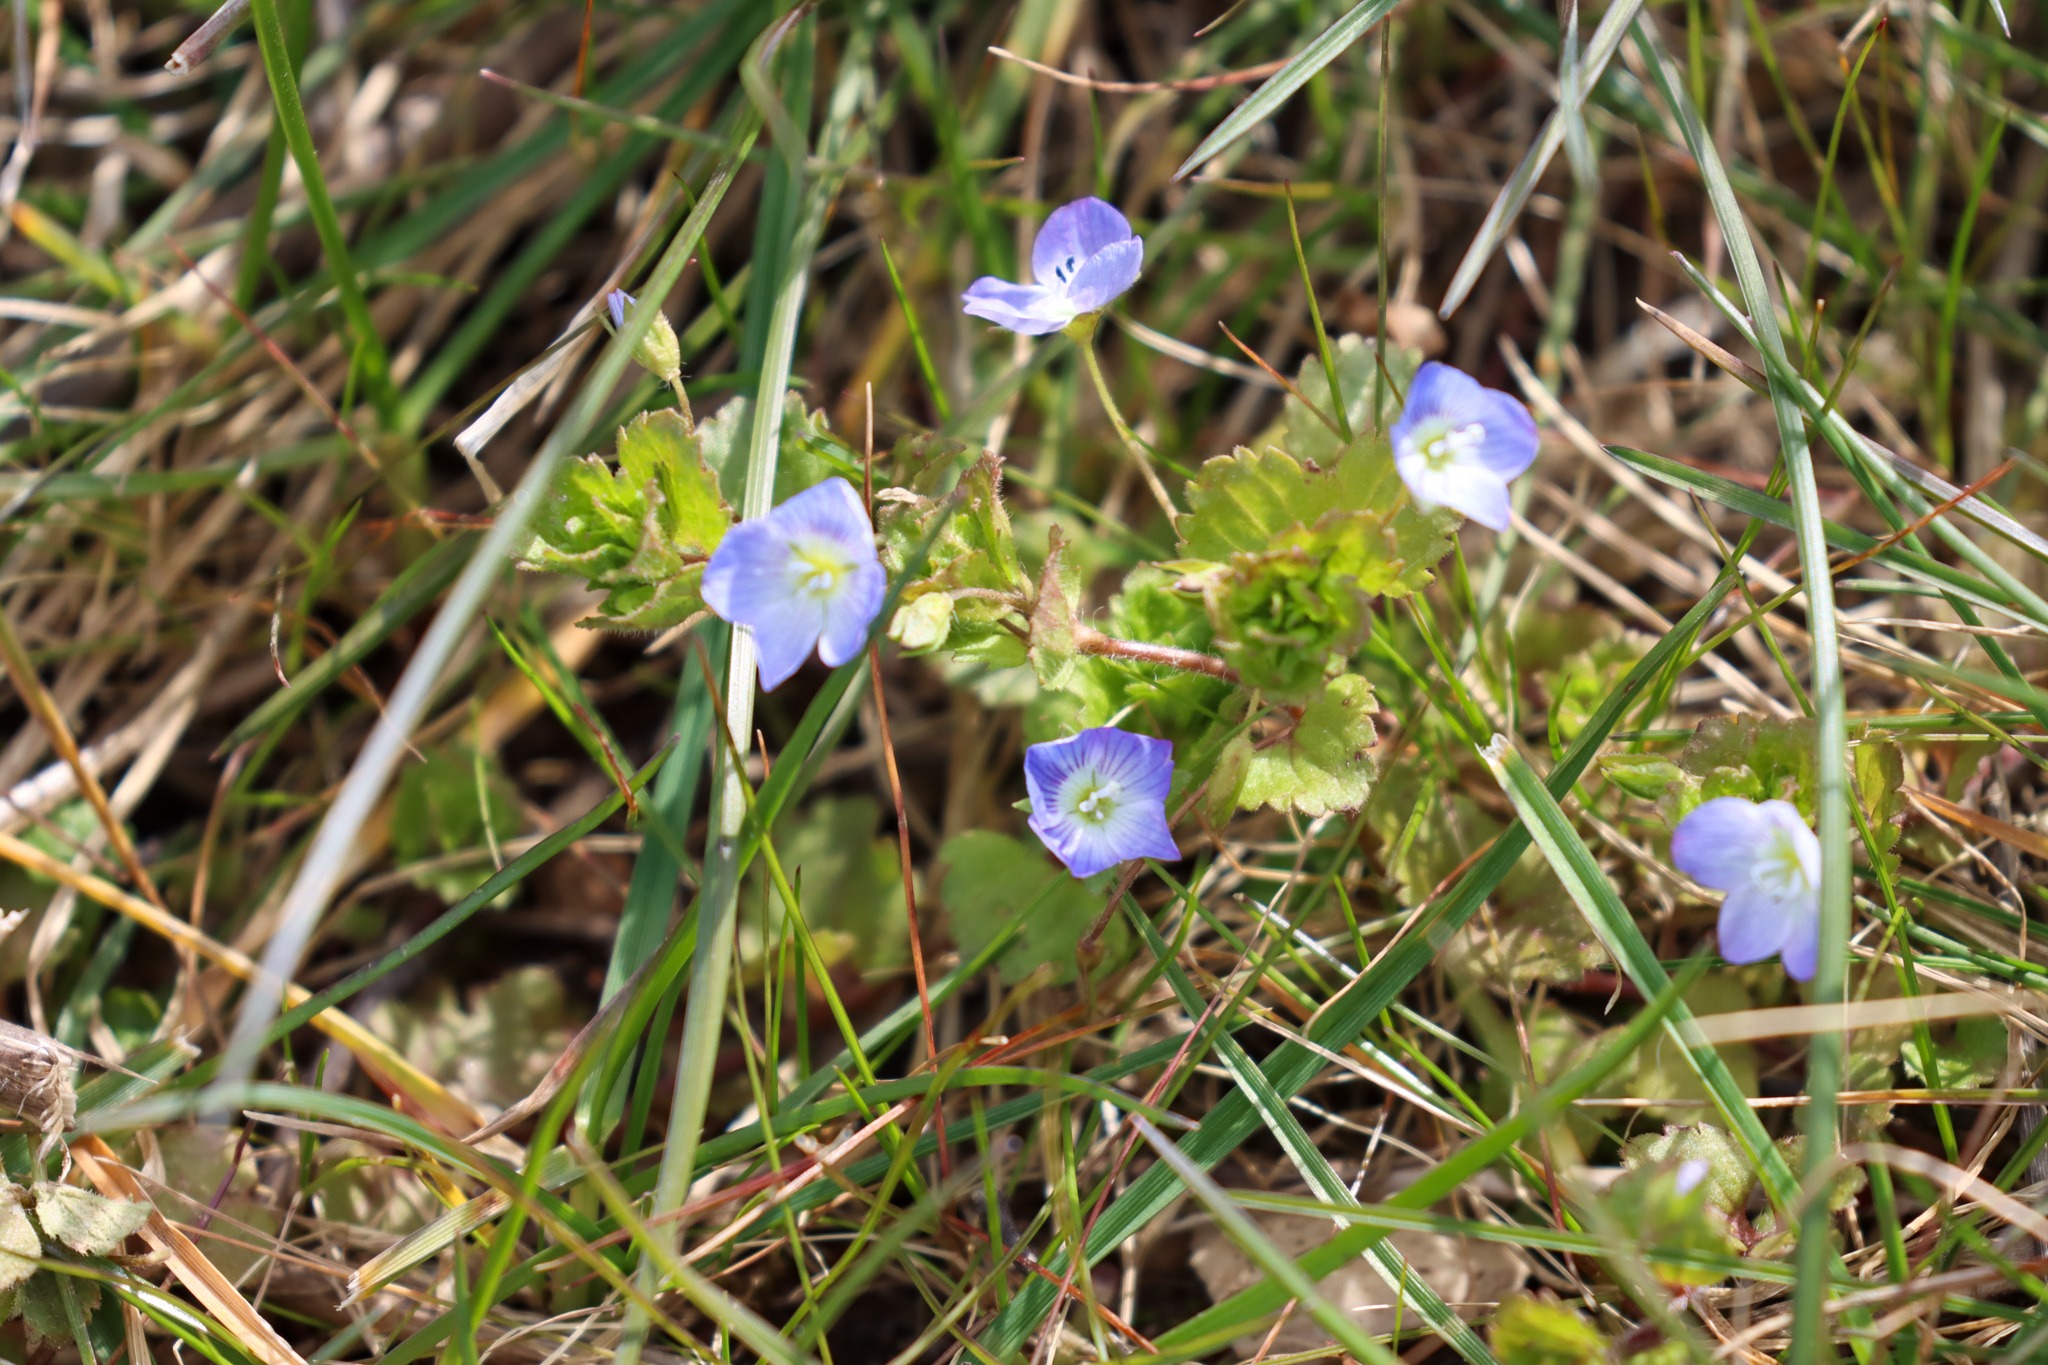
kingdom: Plantae
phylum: Tracheophyta
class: Magnoliopsida
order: Lamiales
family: Plantaginaceae
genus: Veronica
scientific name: Veronica persica
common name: Storkronet ærenpris
